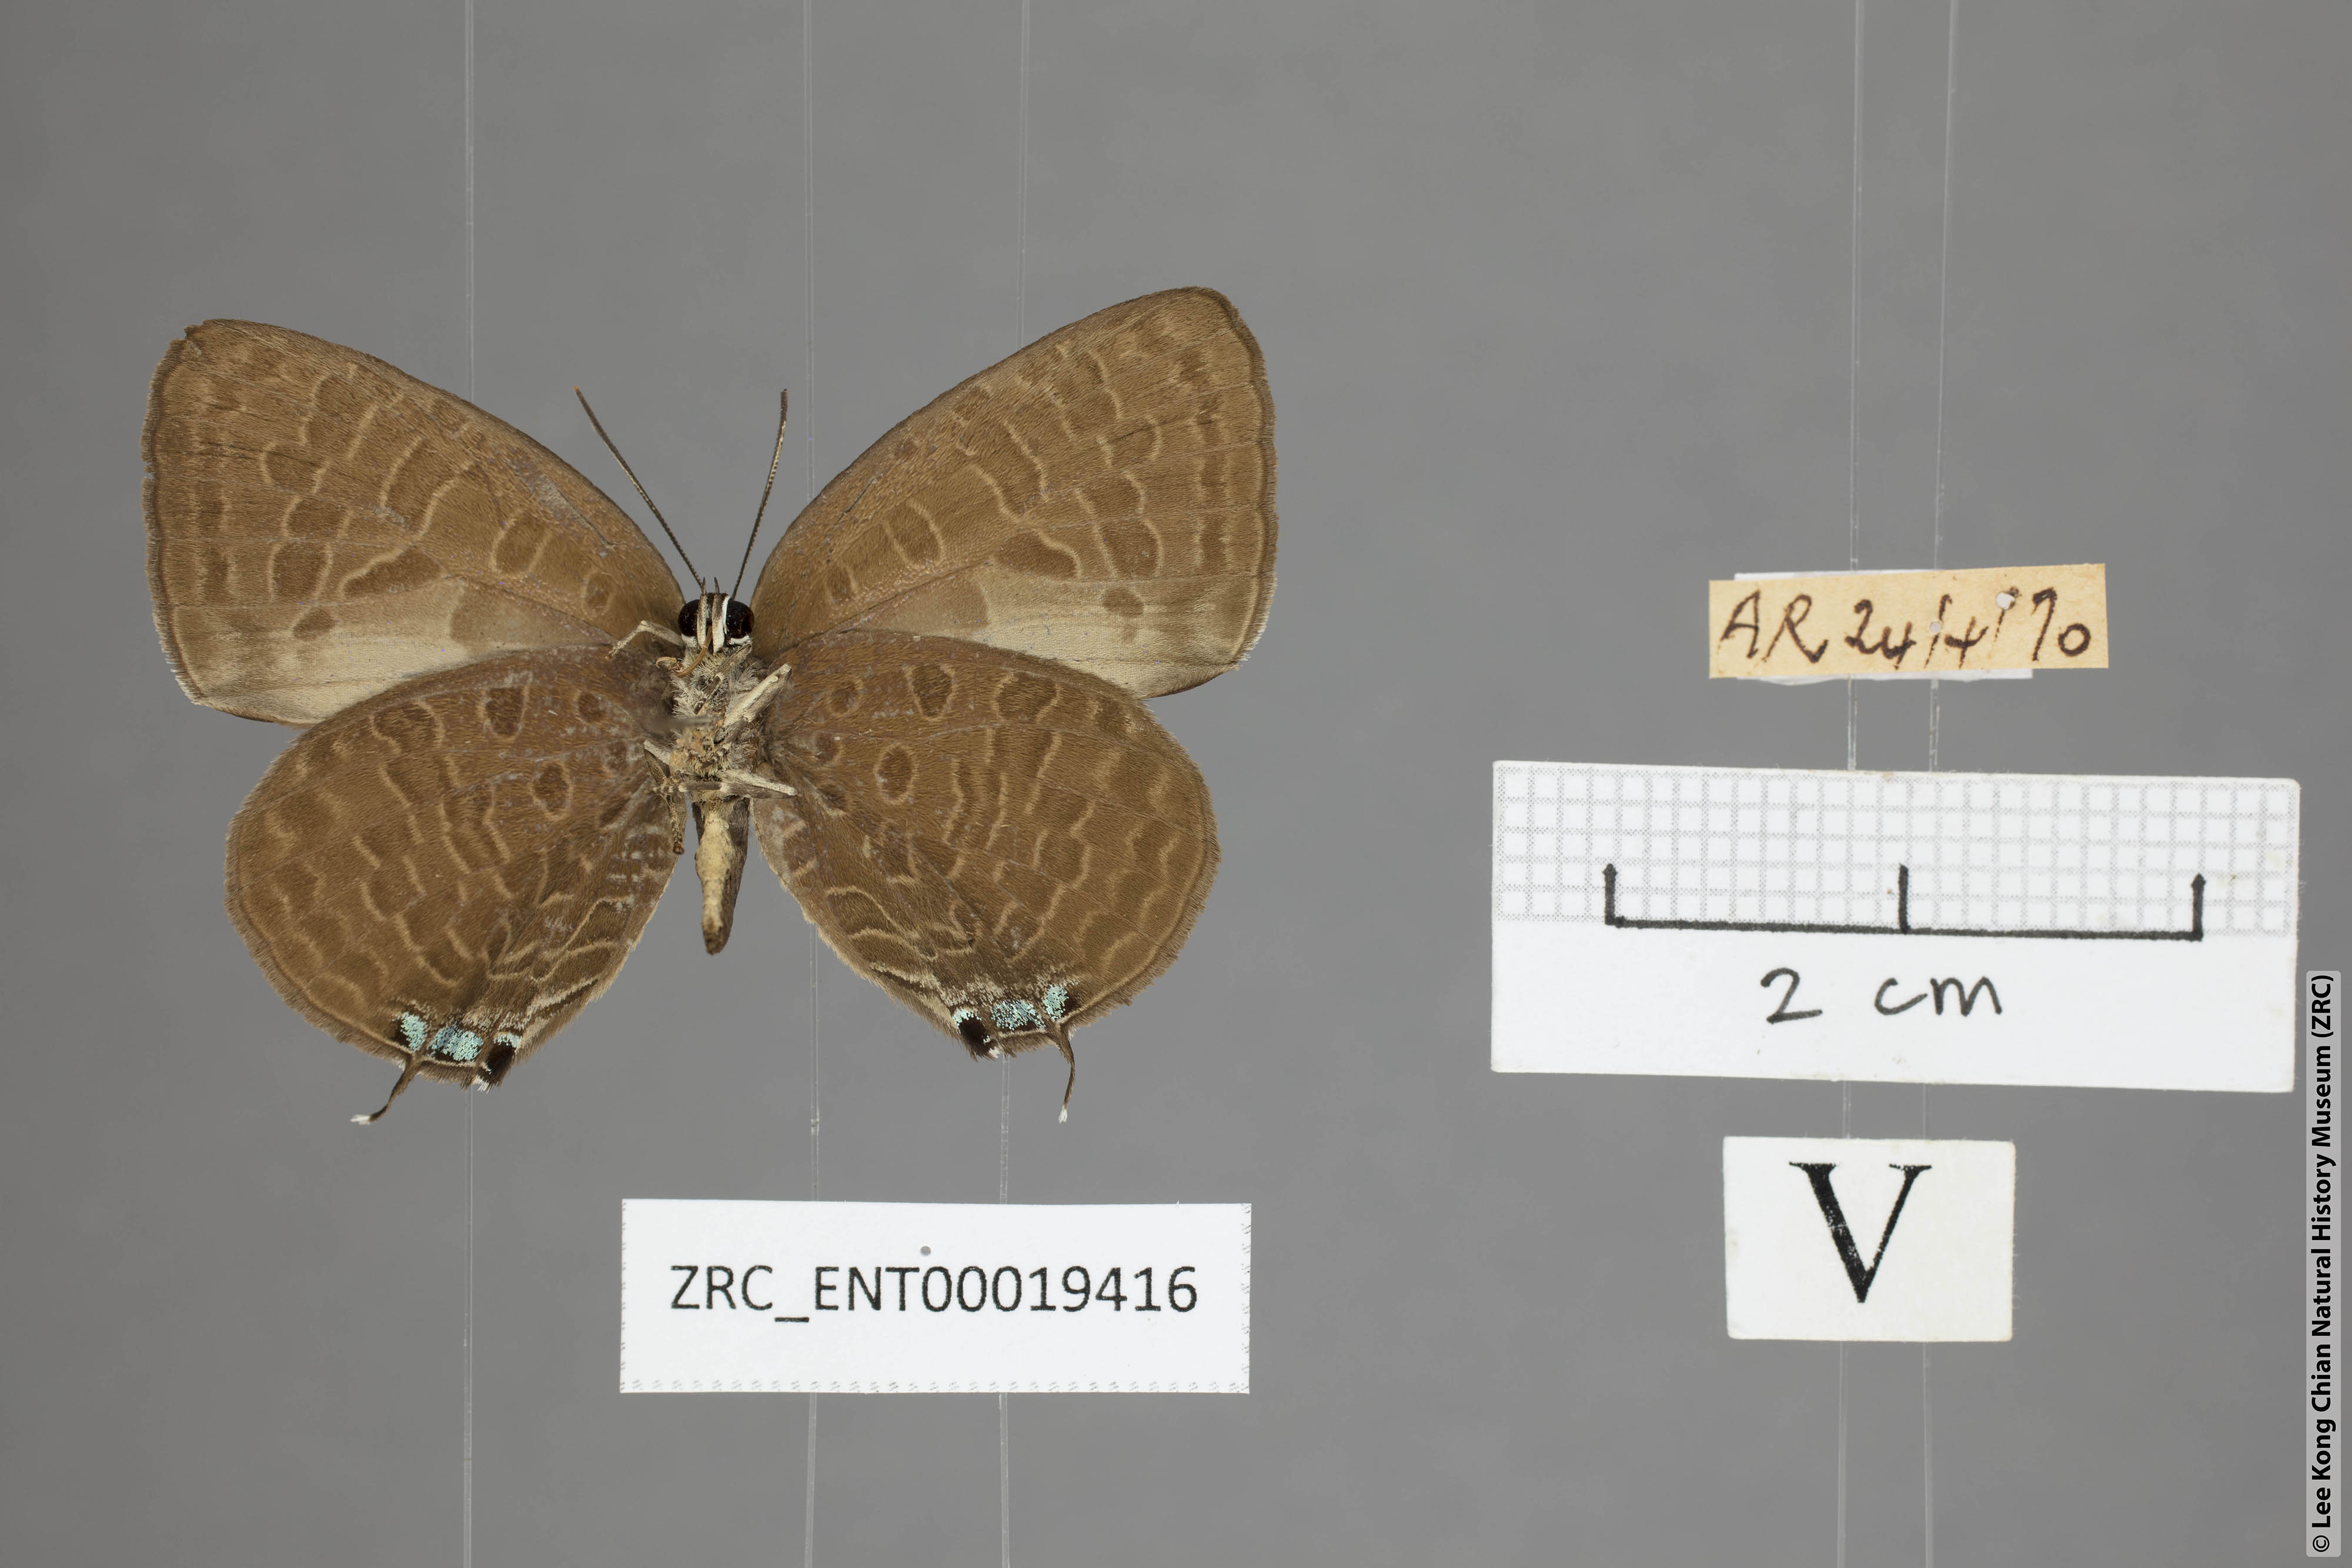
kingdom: Animalia
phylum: Arthropoda
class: Insecta
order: Lepidoptera
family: Lycaenidae
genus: Arhopala
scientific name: Arhopala elopura
